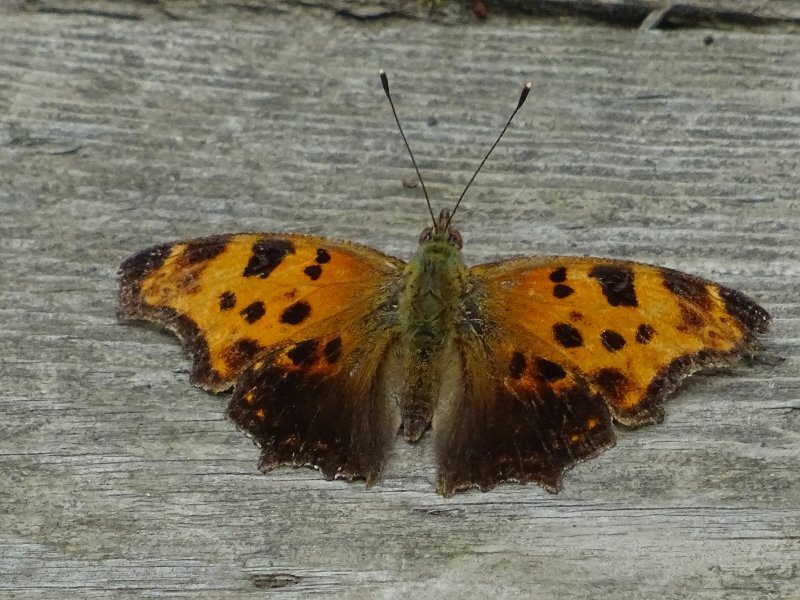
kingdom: Animalia
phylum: Arthropoda
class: Insecta
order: Lepidoptera
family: Nymphalidae
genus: Polygonia
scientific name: Polygonia comma
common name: Eastern Comma
